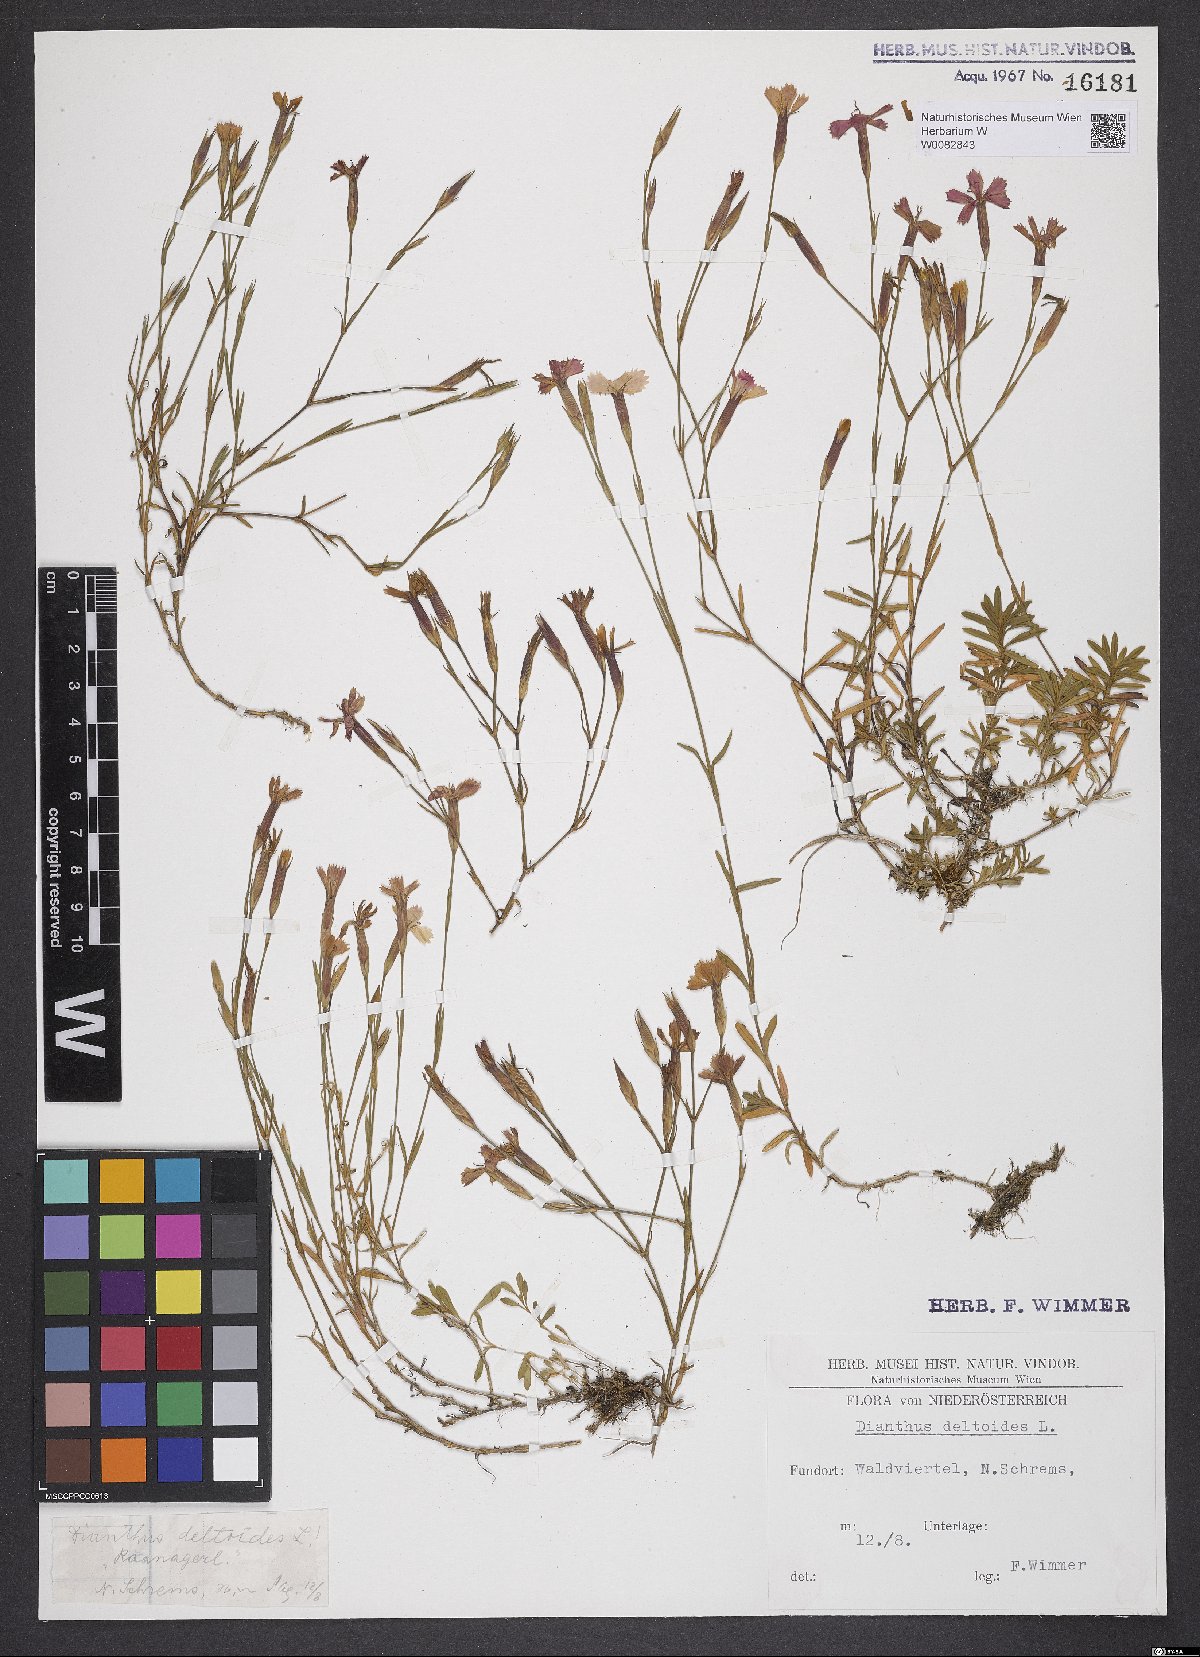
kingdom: Plantae
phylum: Tracheophyta
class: Magnoliopsida
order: Caryophyllales
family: Caryophyllaceae
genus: Dianthus
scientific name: Dianthus deltoides
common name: Maiden pink
